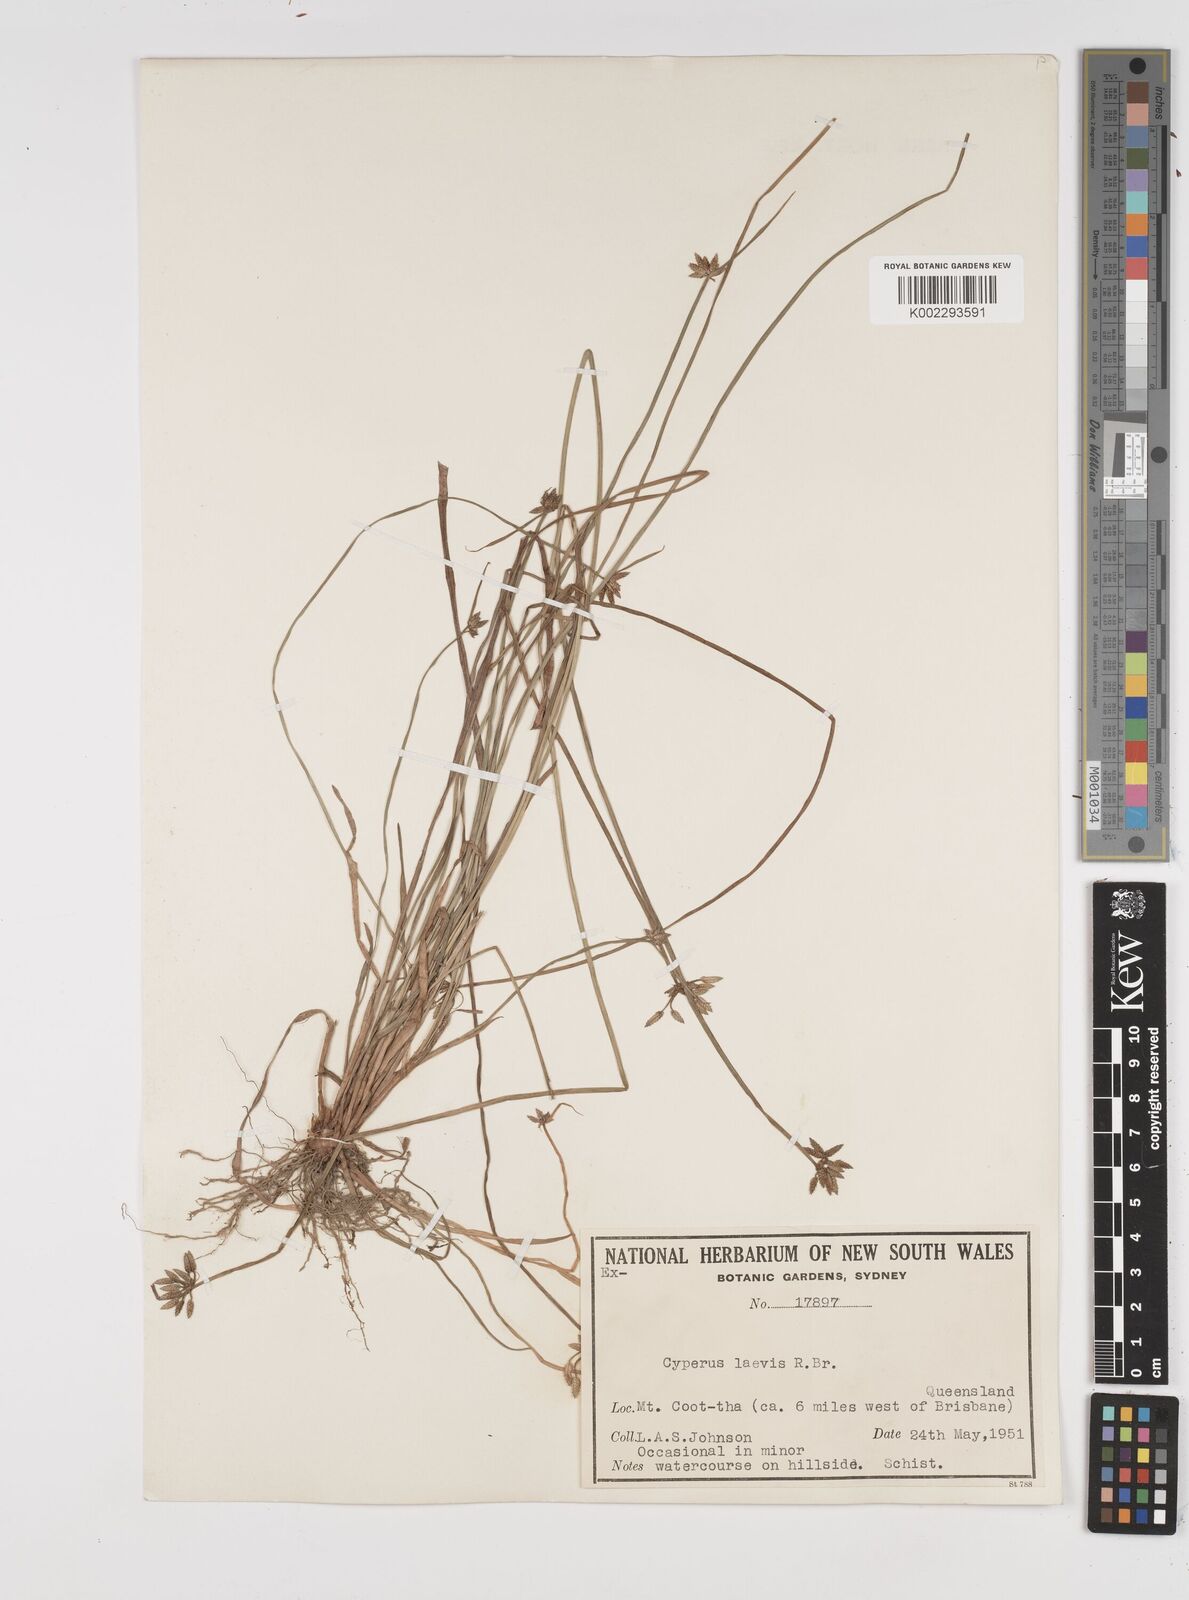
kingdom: Plantae
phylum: Tracheophyta
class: Liliopsida
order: Poales
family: Cyperaceae
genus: Cyperus
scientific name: Cyperus laevis
